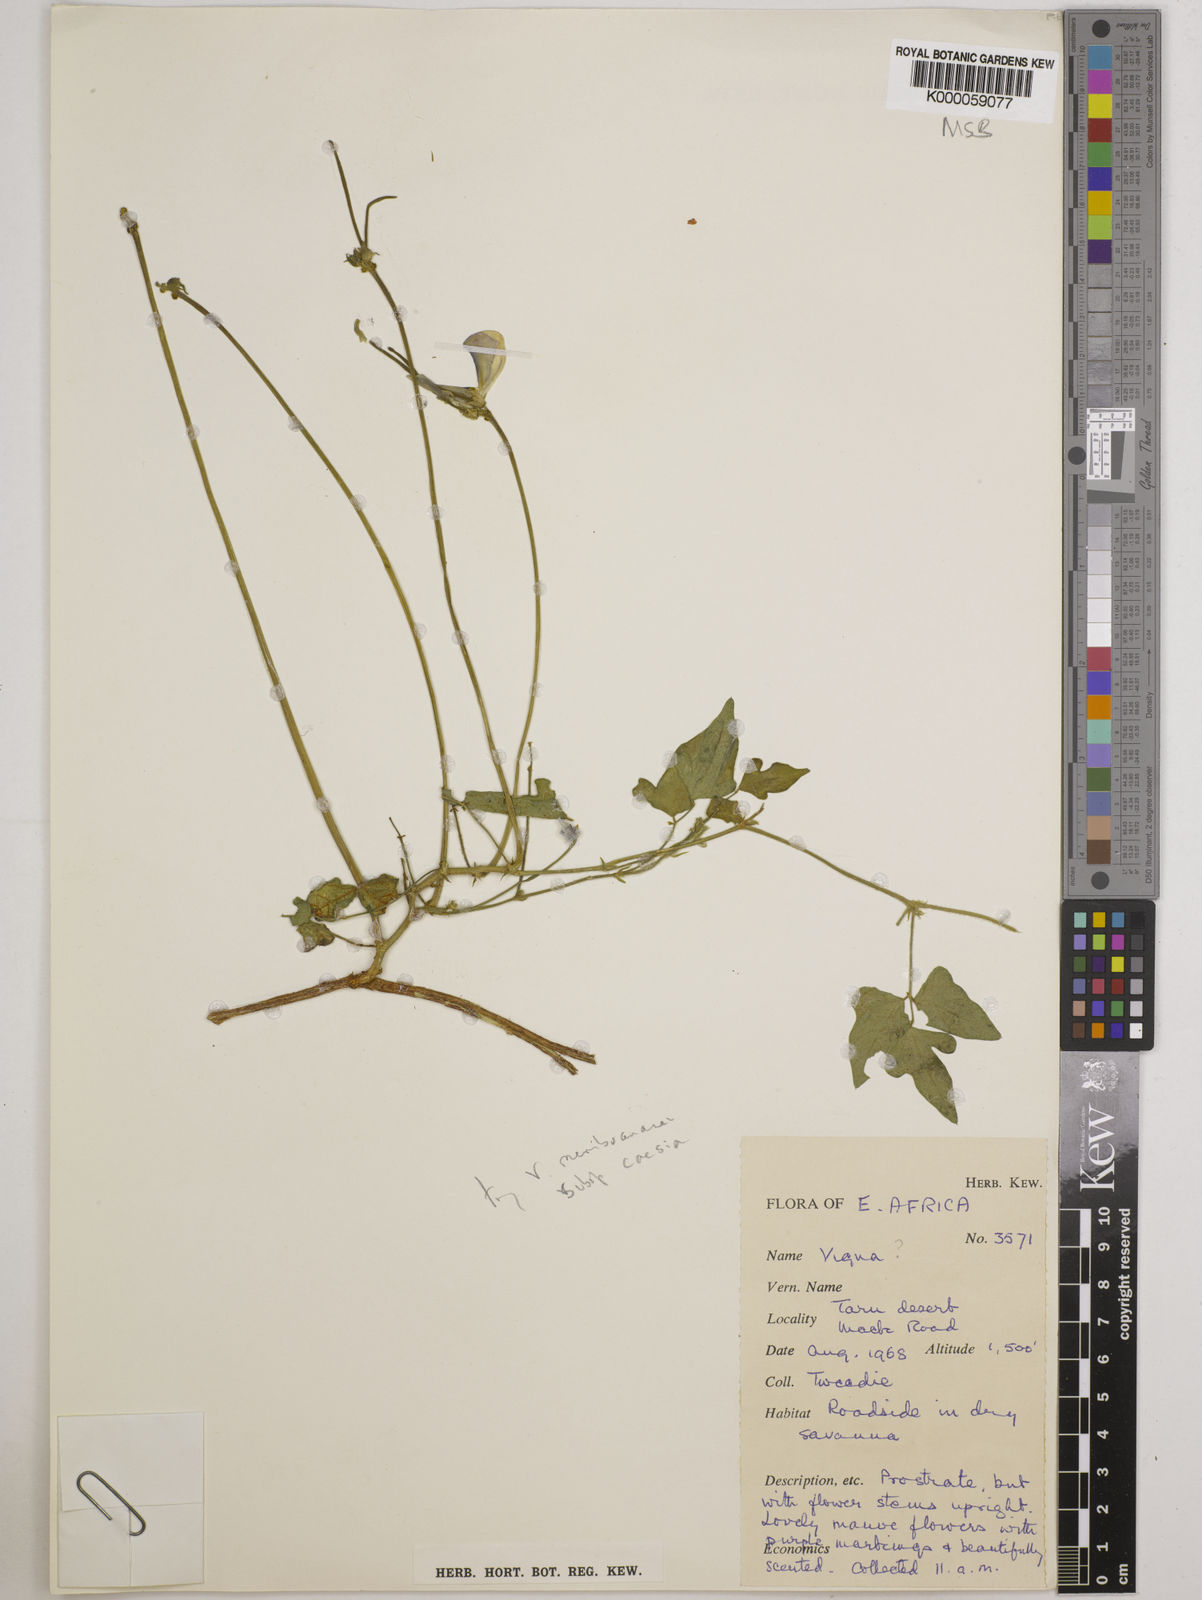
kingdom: Plantae
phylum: Tracheophyta
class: Magnoliopsida
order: Fabales
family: Fabaceae
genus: Vigna
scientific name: Vigna membranacea
